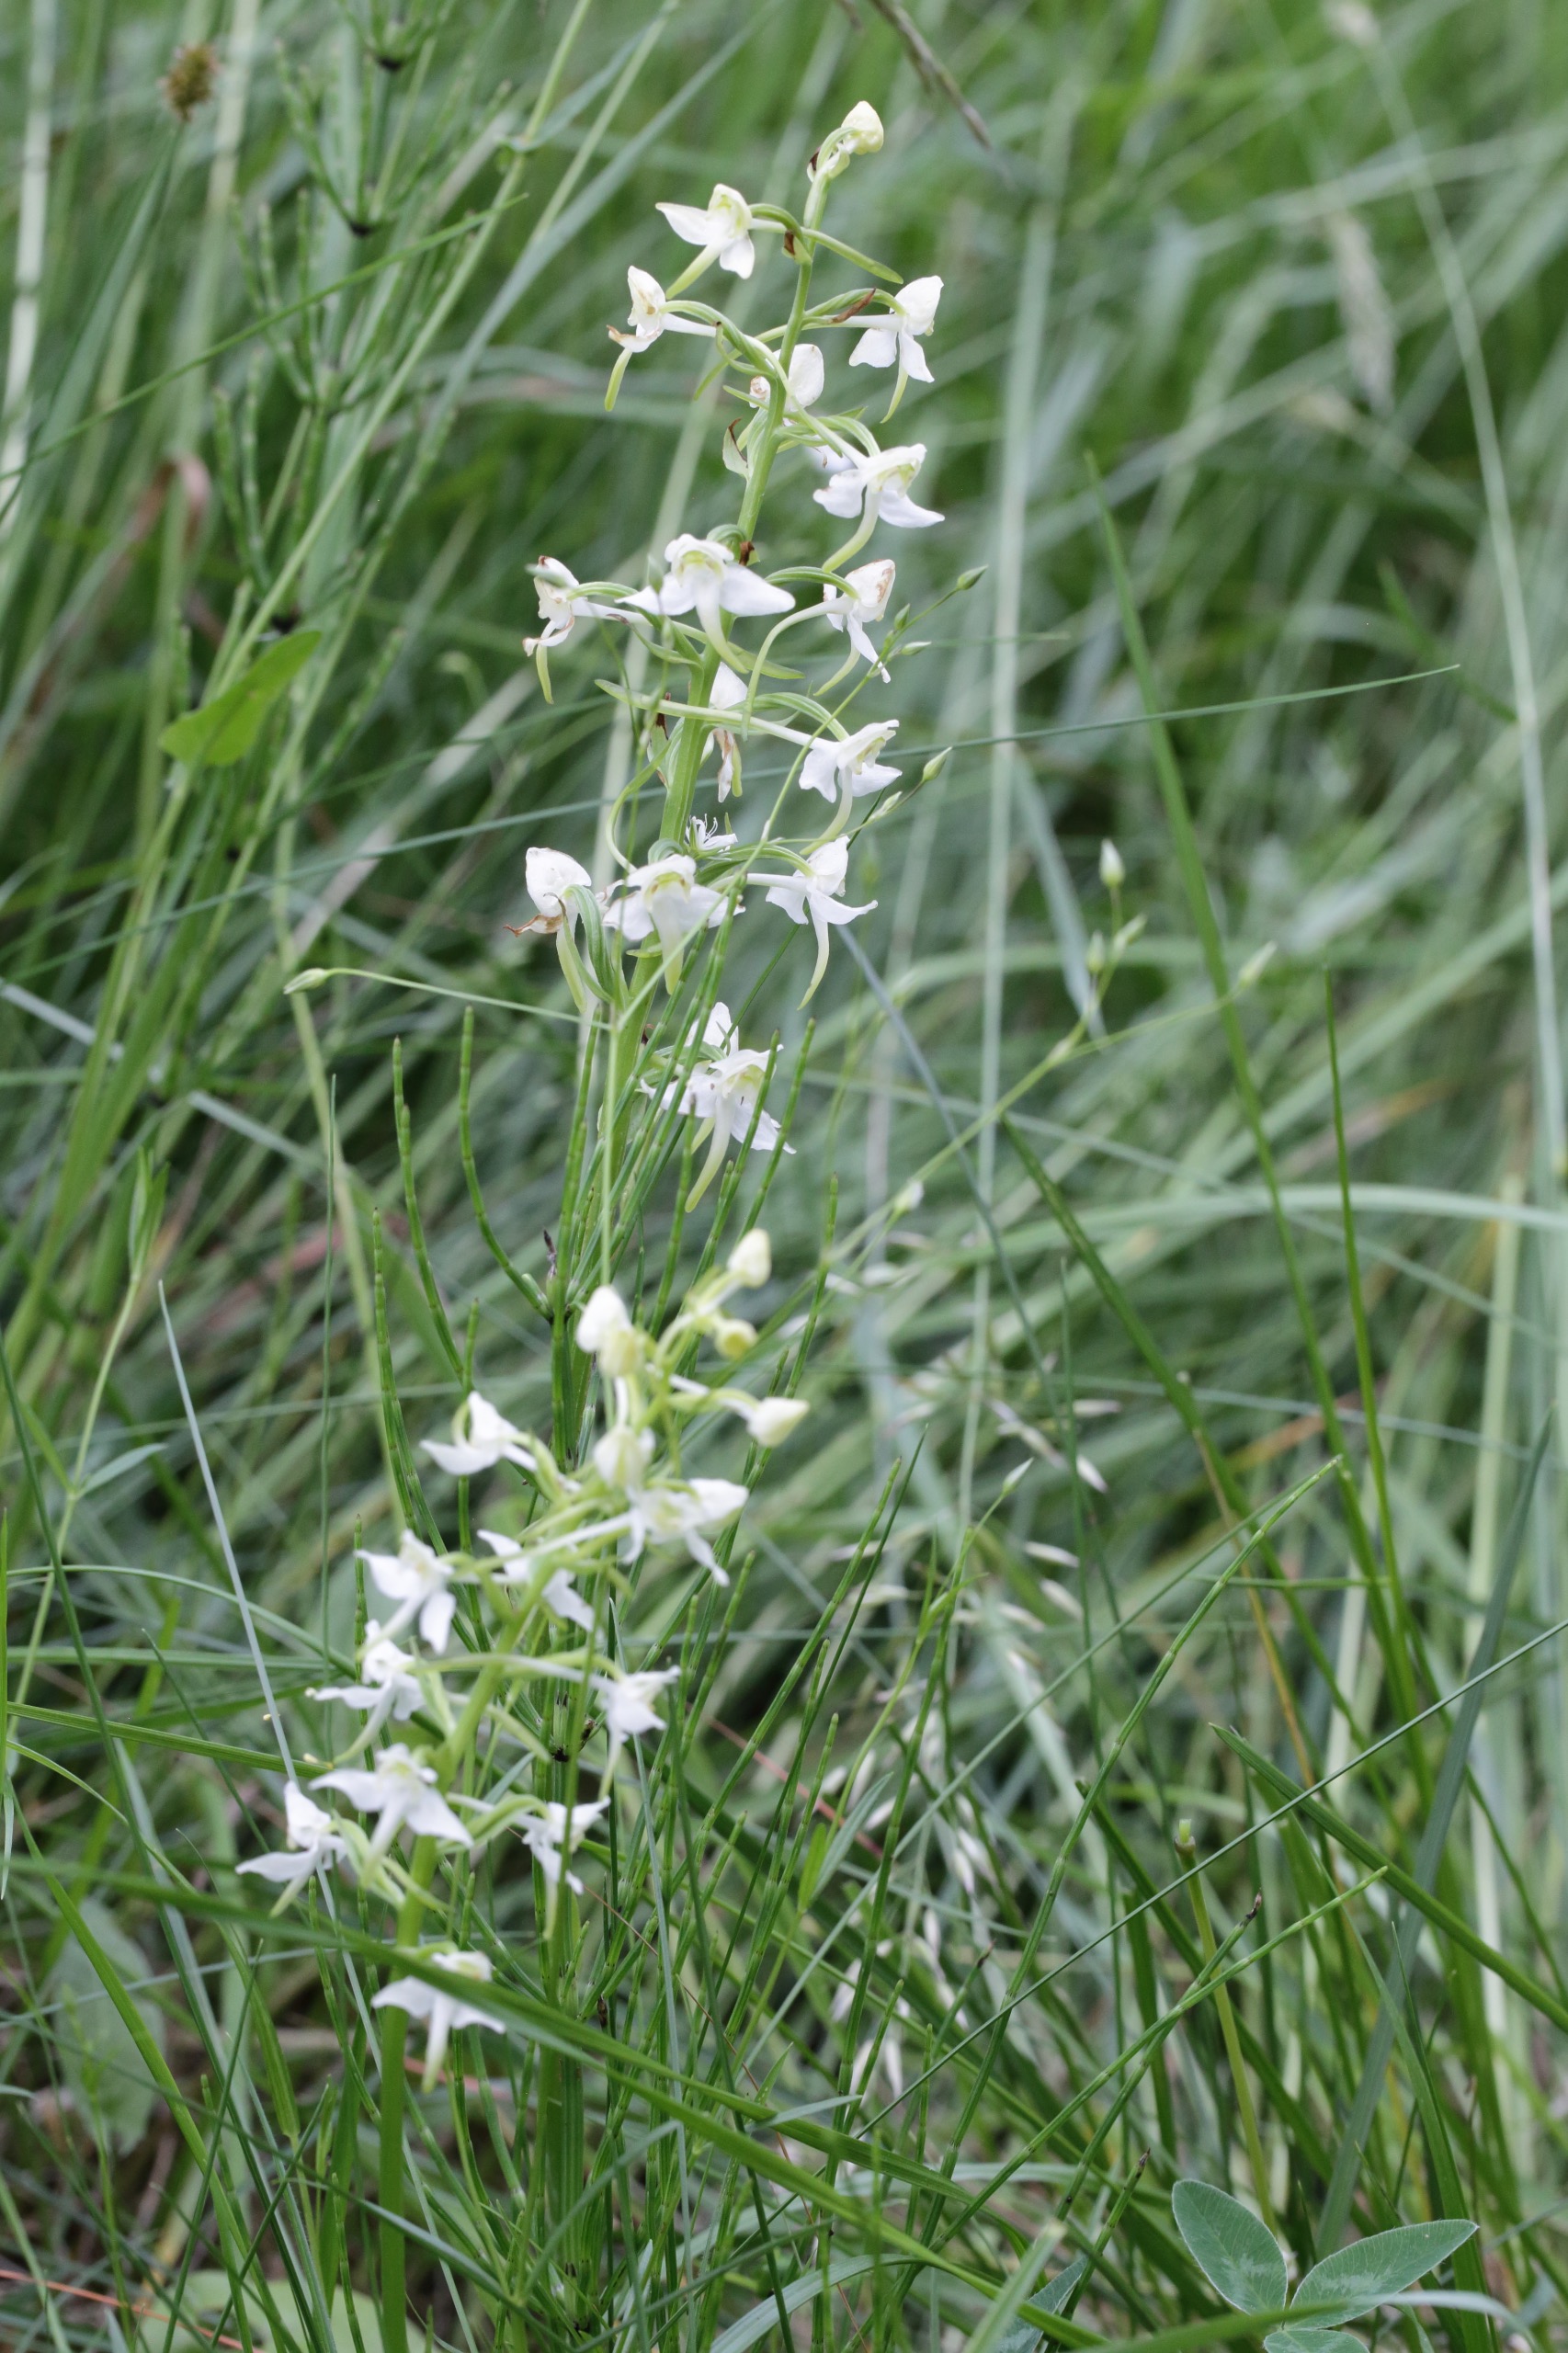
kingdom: Plantae
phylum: Tracheophyta
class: Liliopsida
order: Asparagales
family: Orchidaceae
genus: Platanthera
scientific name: Platanthera chlorantha
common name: Skov-gøgelilje
